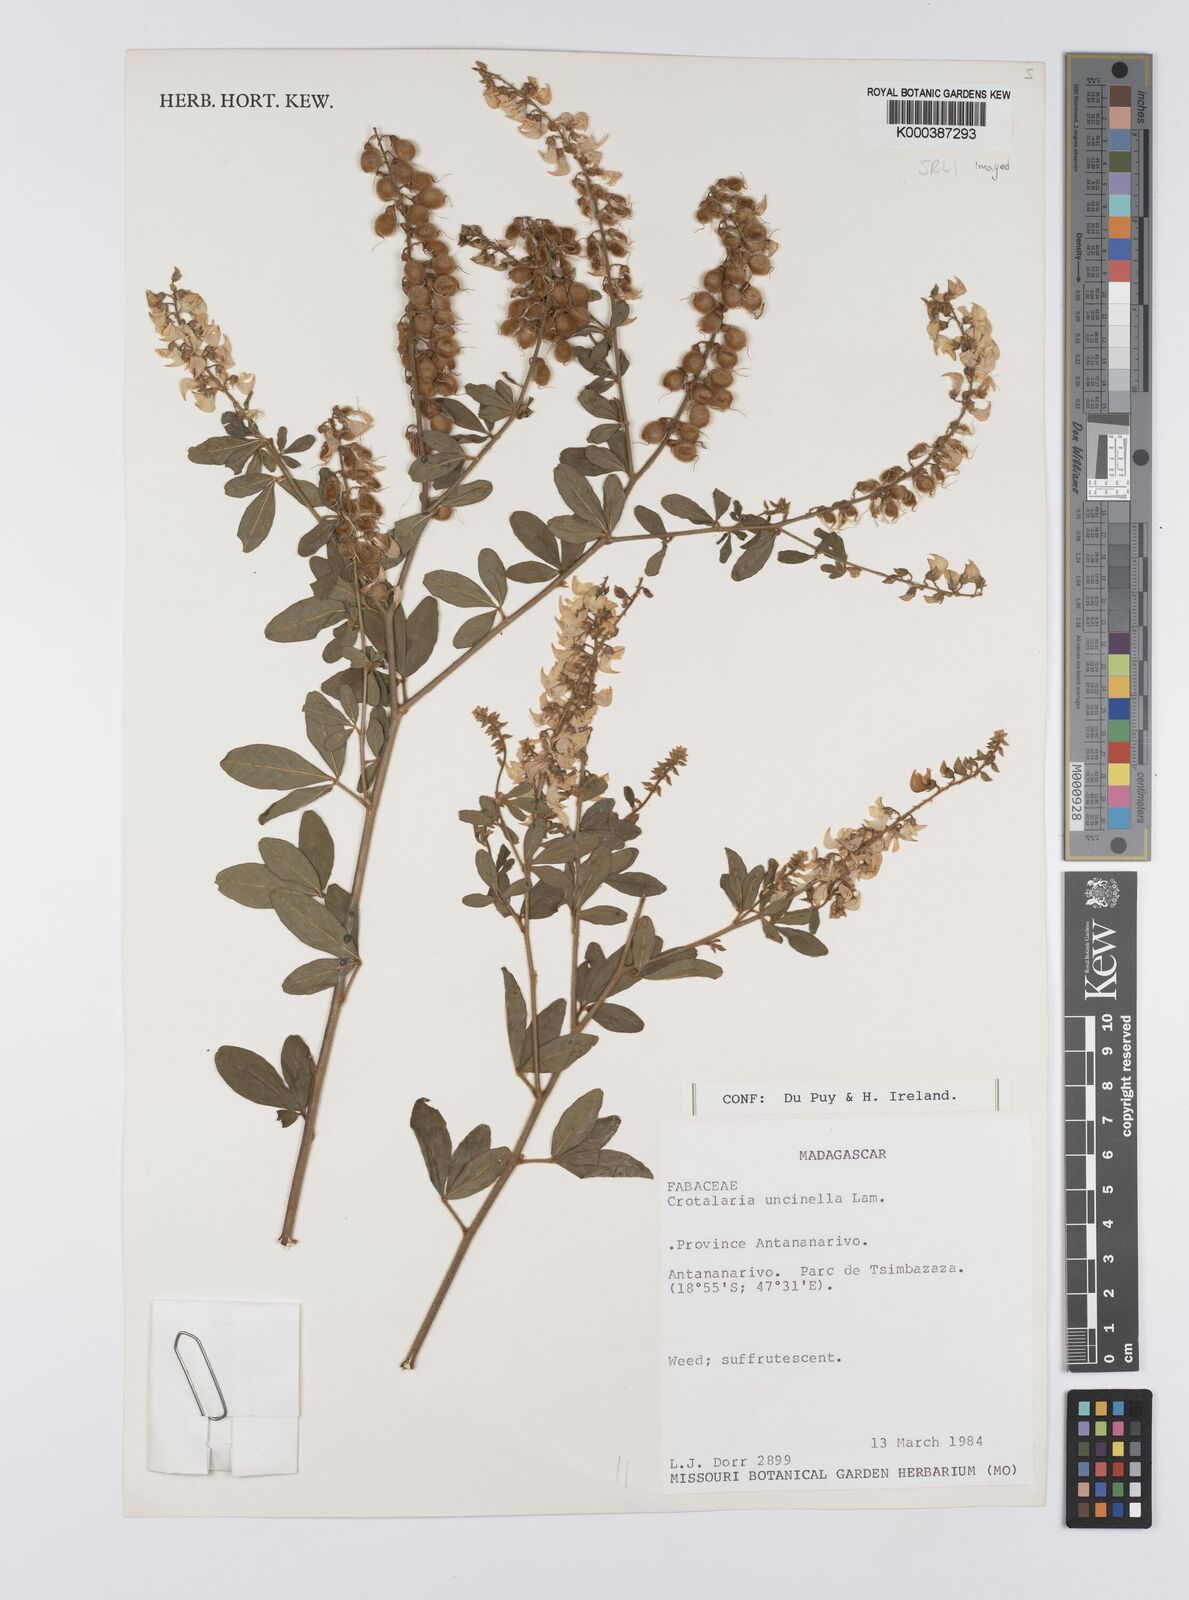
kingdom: Plantae
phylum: Tracheophyta
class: Magnoliopsida
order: Fabales
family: Fabaceae
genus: Crotalaria
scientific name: Crotalaria uncinella
